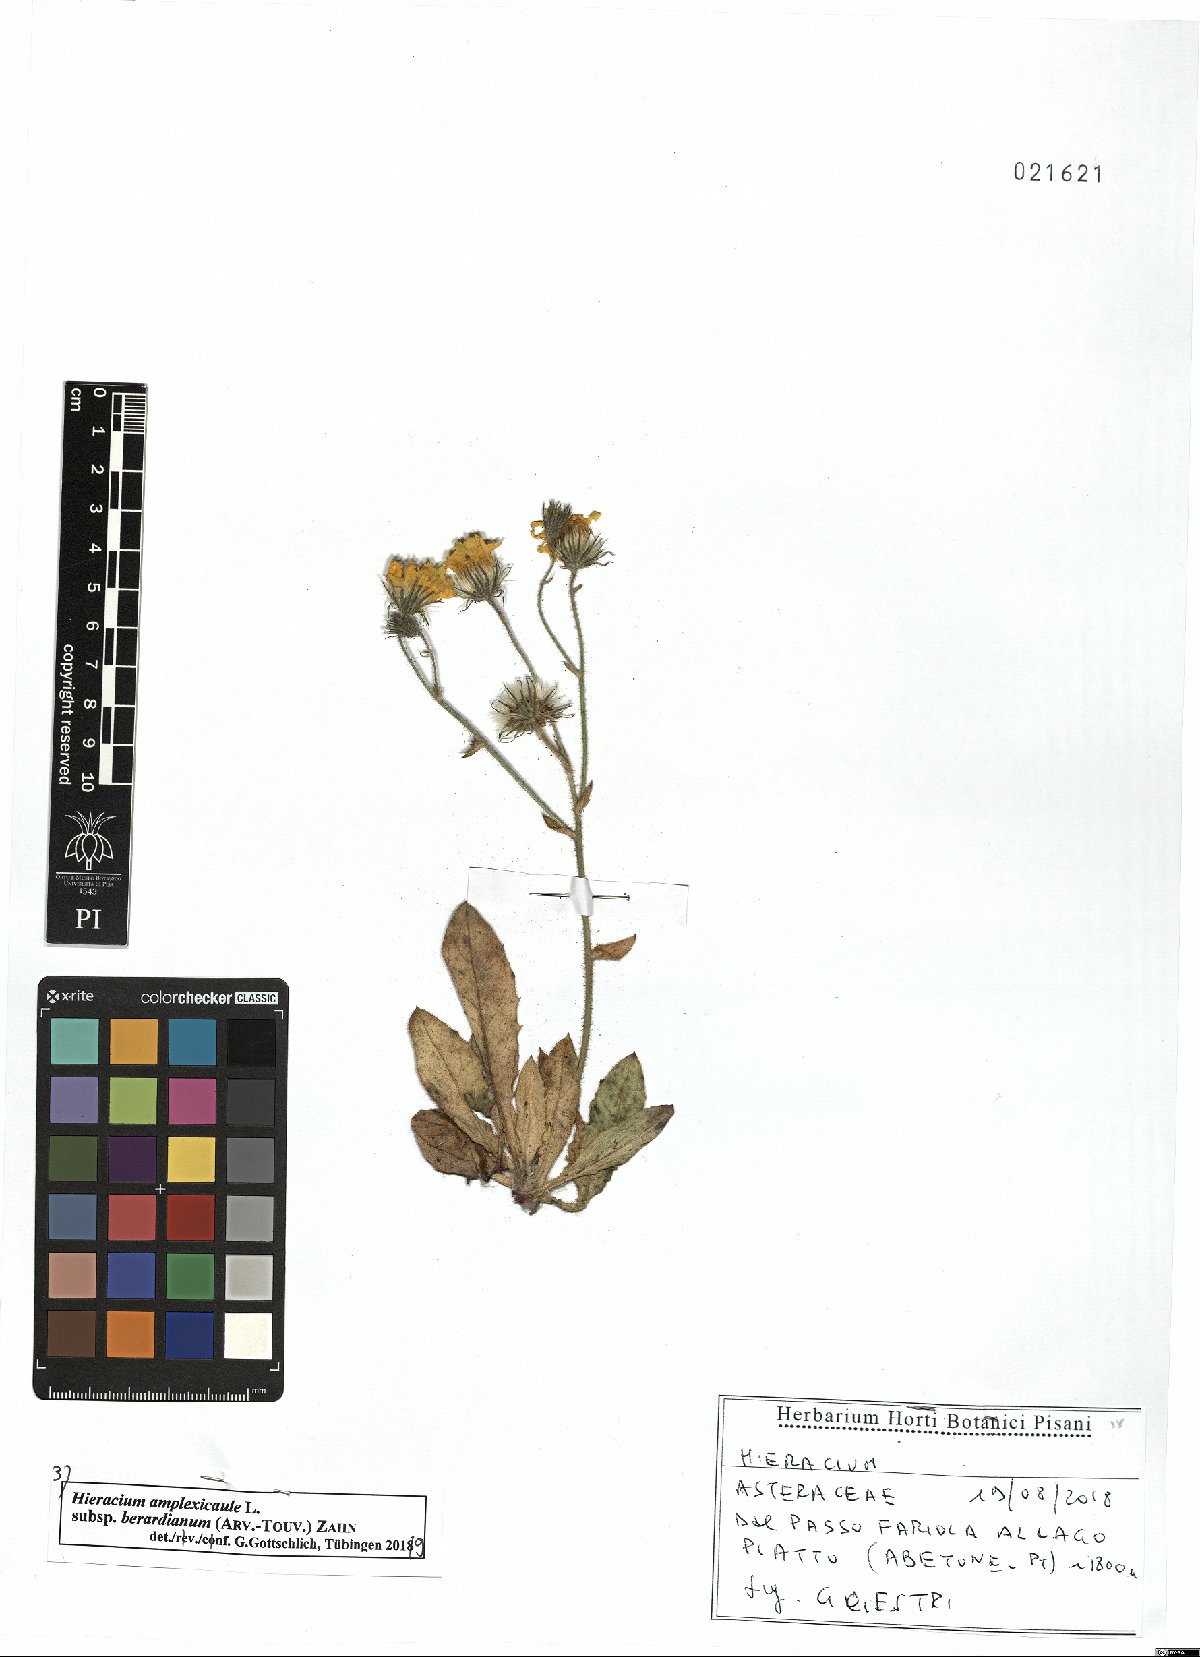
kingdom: Plantae
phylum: Tracheophyta
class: Magnoliopsida
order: Asterales
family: Asteraceae
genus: Hieracium
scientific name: Hieracium amplexicaule
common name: Sticky hawkweed
